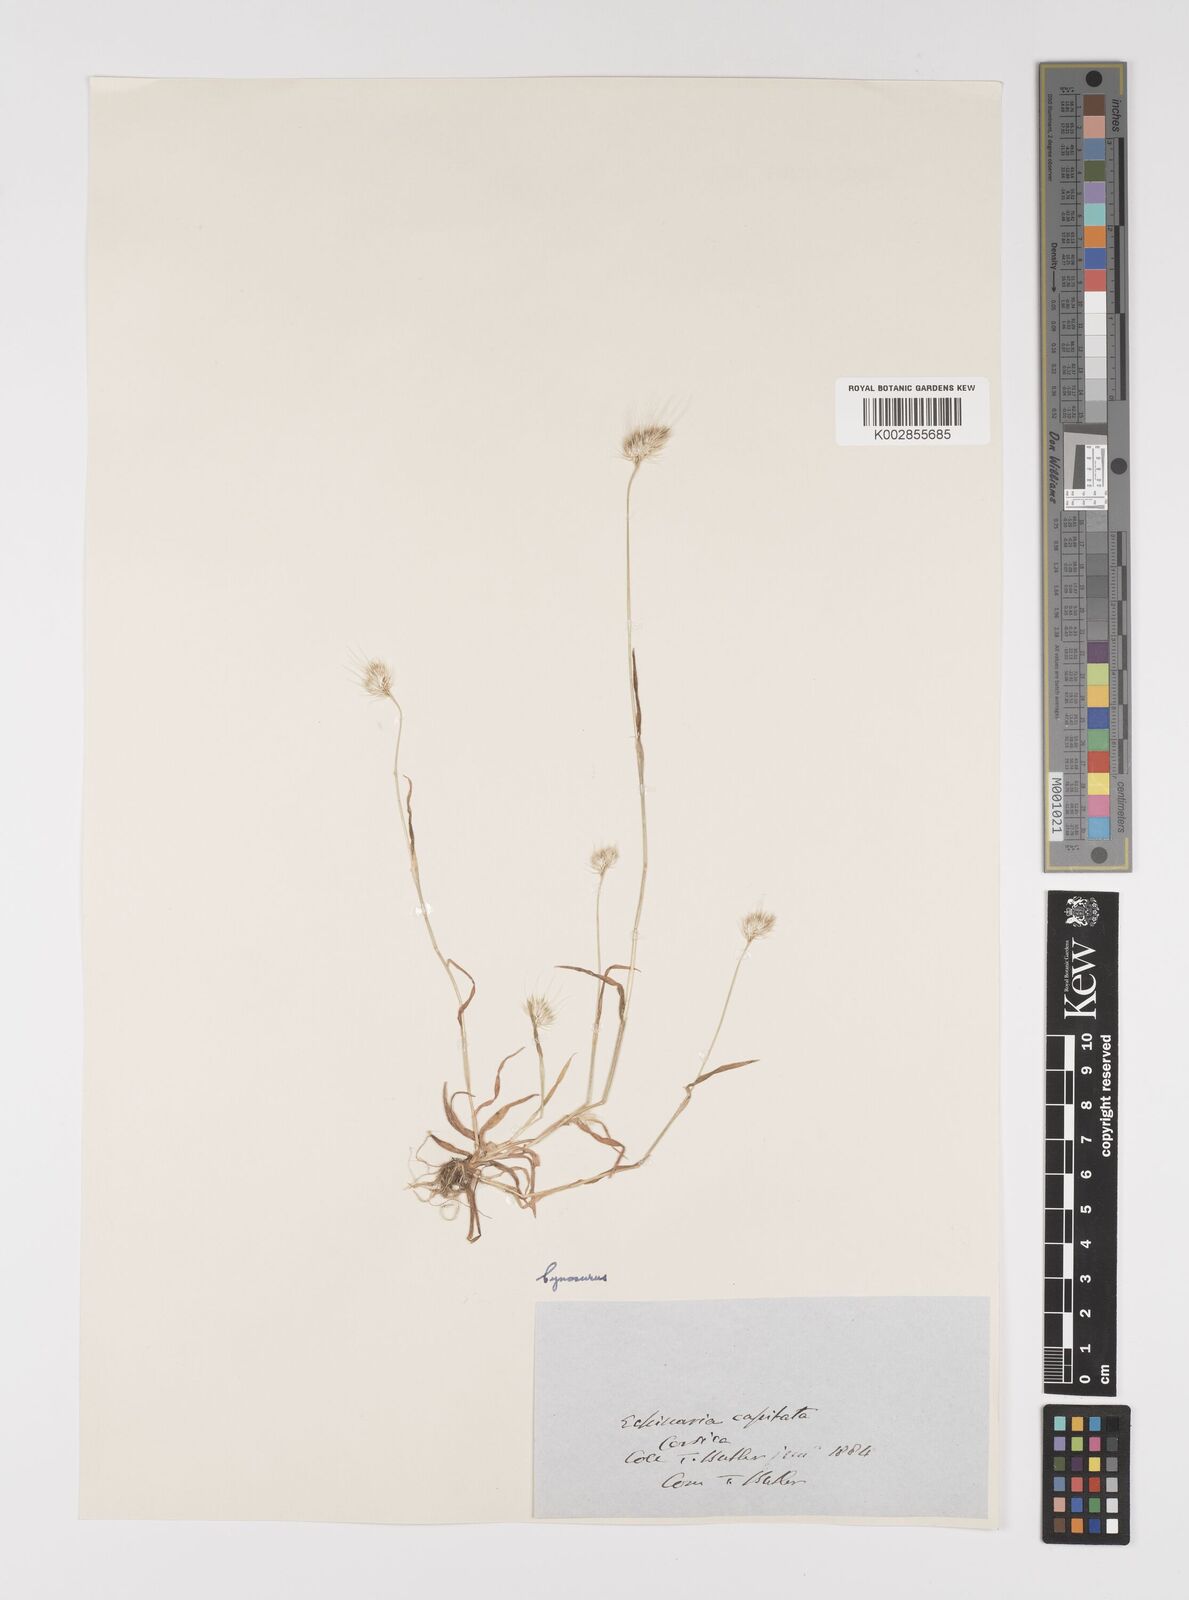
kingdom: Plantae
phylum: Tracheophyta
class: Liliopsida
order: Poales
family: Poaceae
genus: Cynosurus
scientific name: Cynosurus echinatus
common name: Rough dog's-tail
